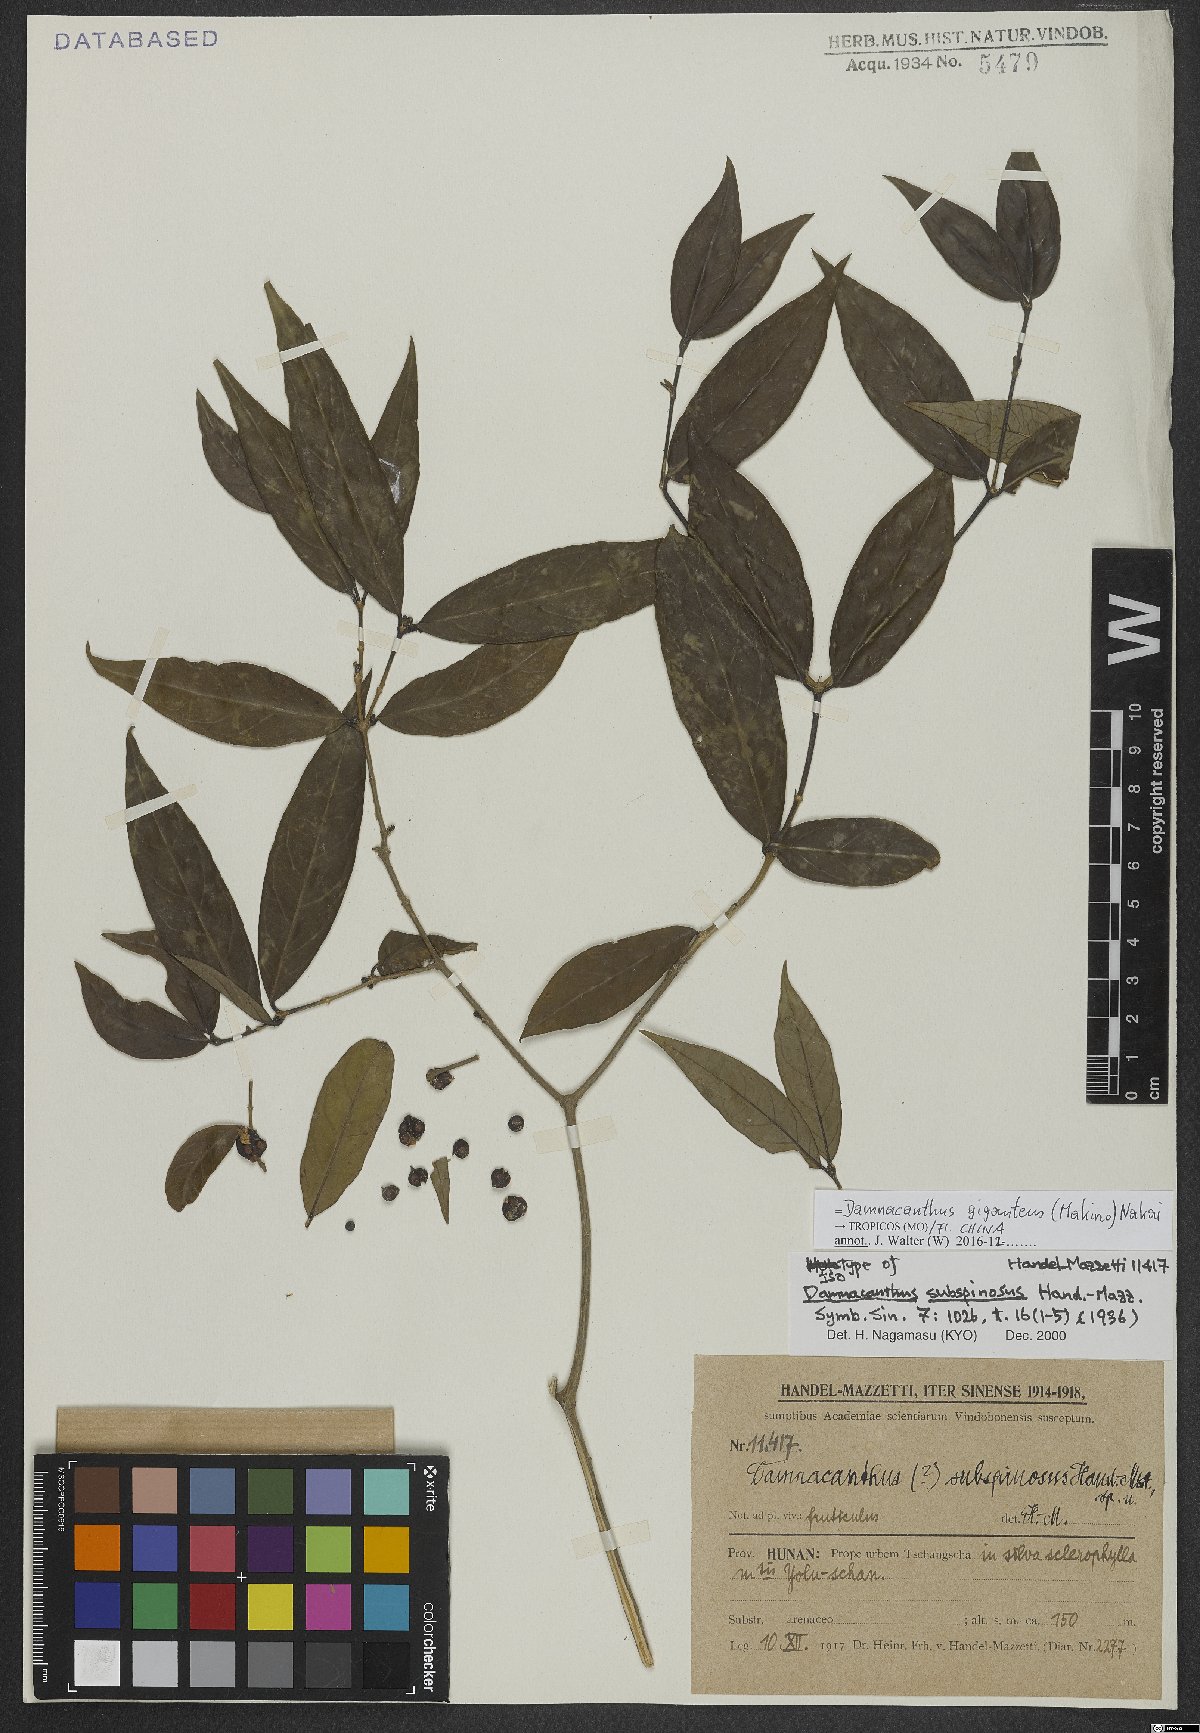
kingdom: Plantae
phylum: Tracheophyta
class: Magnoliopsida
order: Gentianales
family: Rubiaceae
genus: Damnacanthus
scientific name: Damnacanthus giganteus
